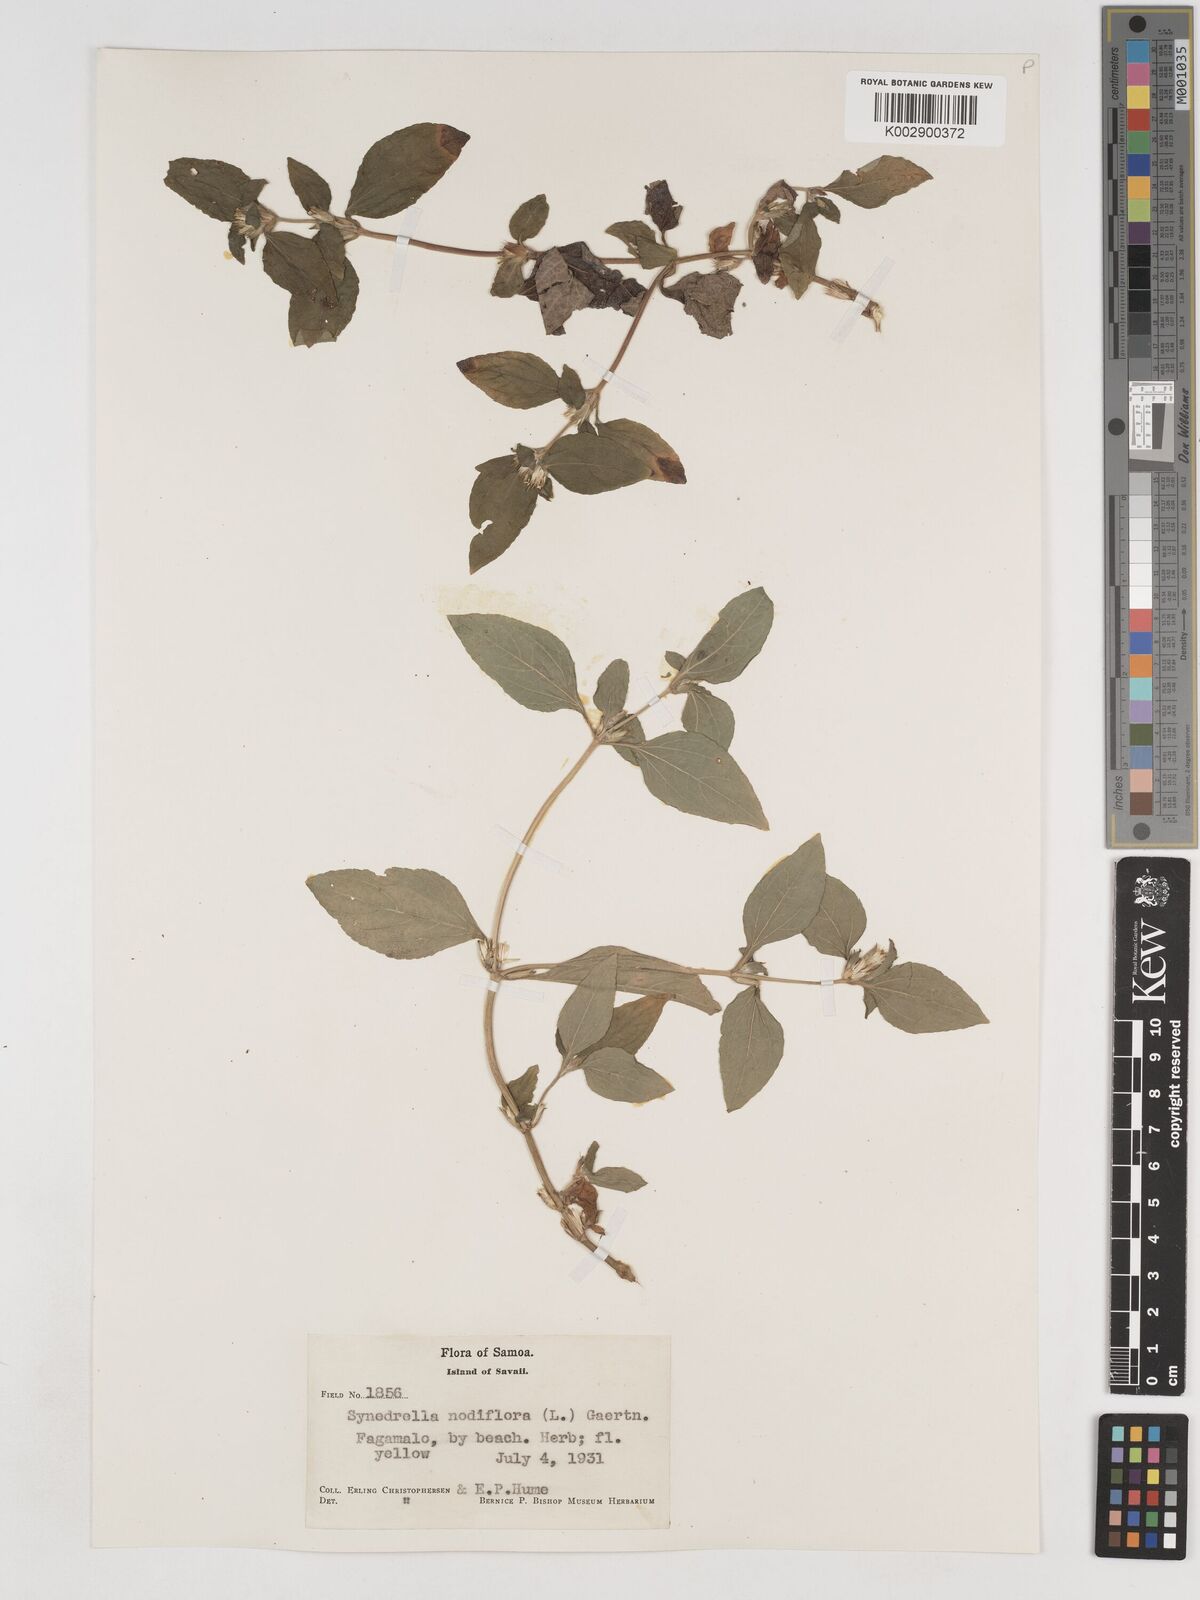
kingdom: Plantae
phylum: Tracheophyta
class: Magnoliopsida
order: Asterales
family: Asteraceae
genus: Synedrella
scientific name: Synedrella nodiflora
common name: Nodeweed
